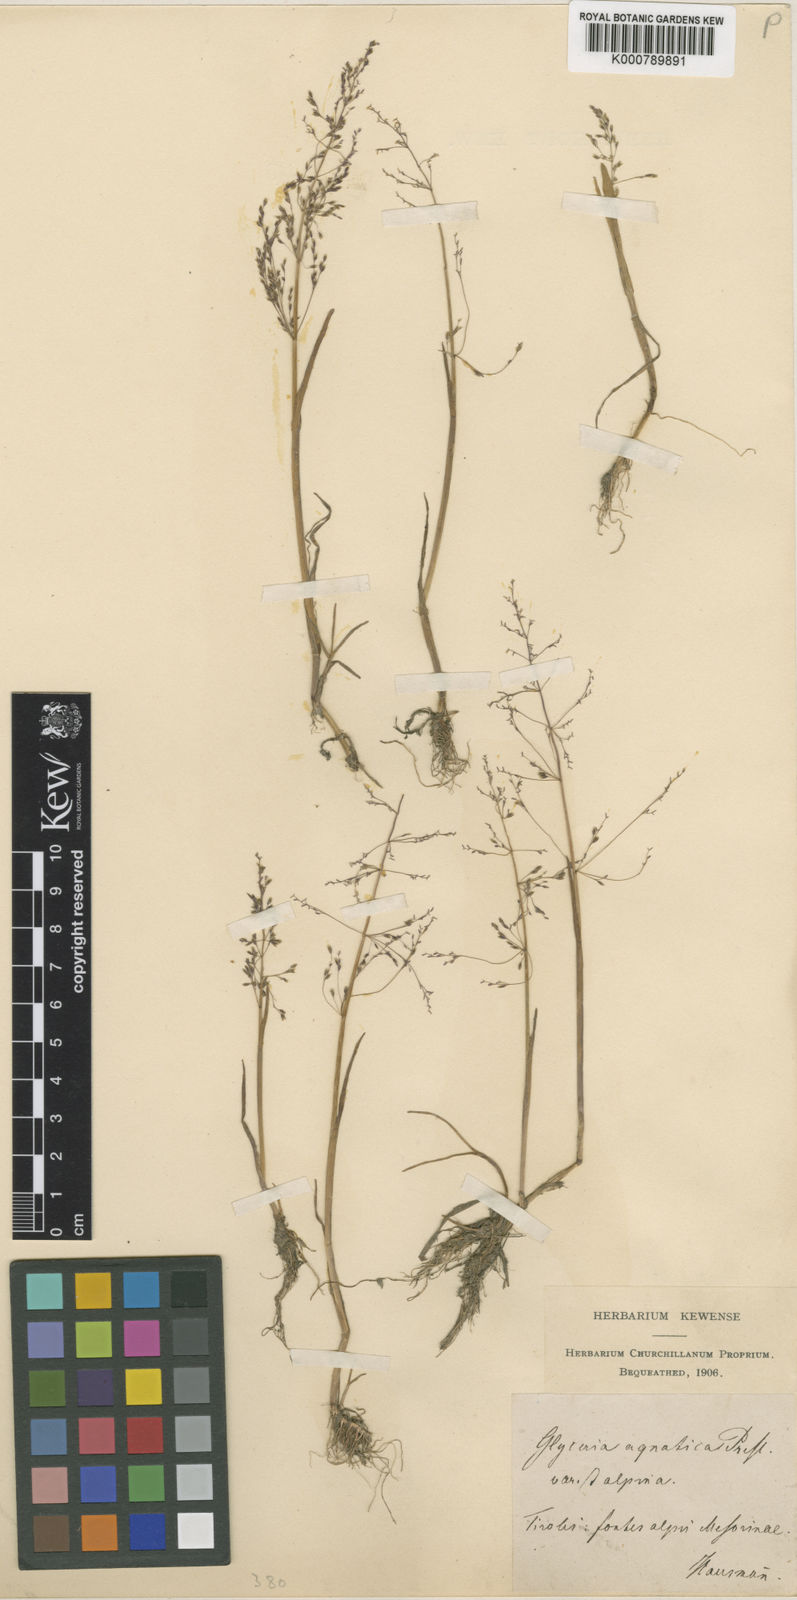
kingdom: Plantae
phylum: Tracheophyta
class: Liliopsida
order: Poales
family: Poaceae
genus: Catabrosa
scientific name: Catabrosa aquatica
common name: Whorl-grass
